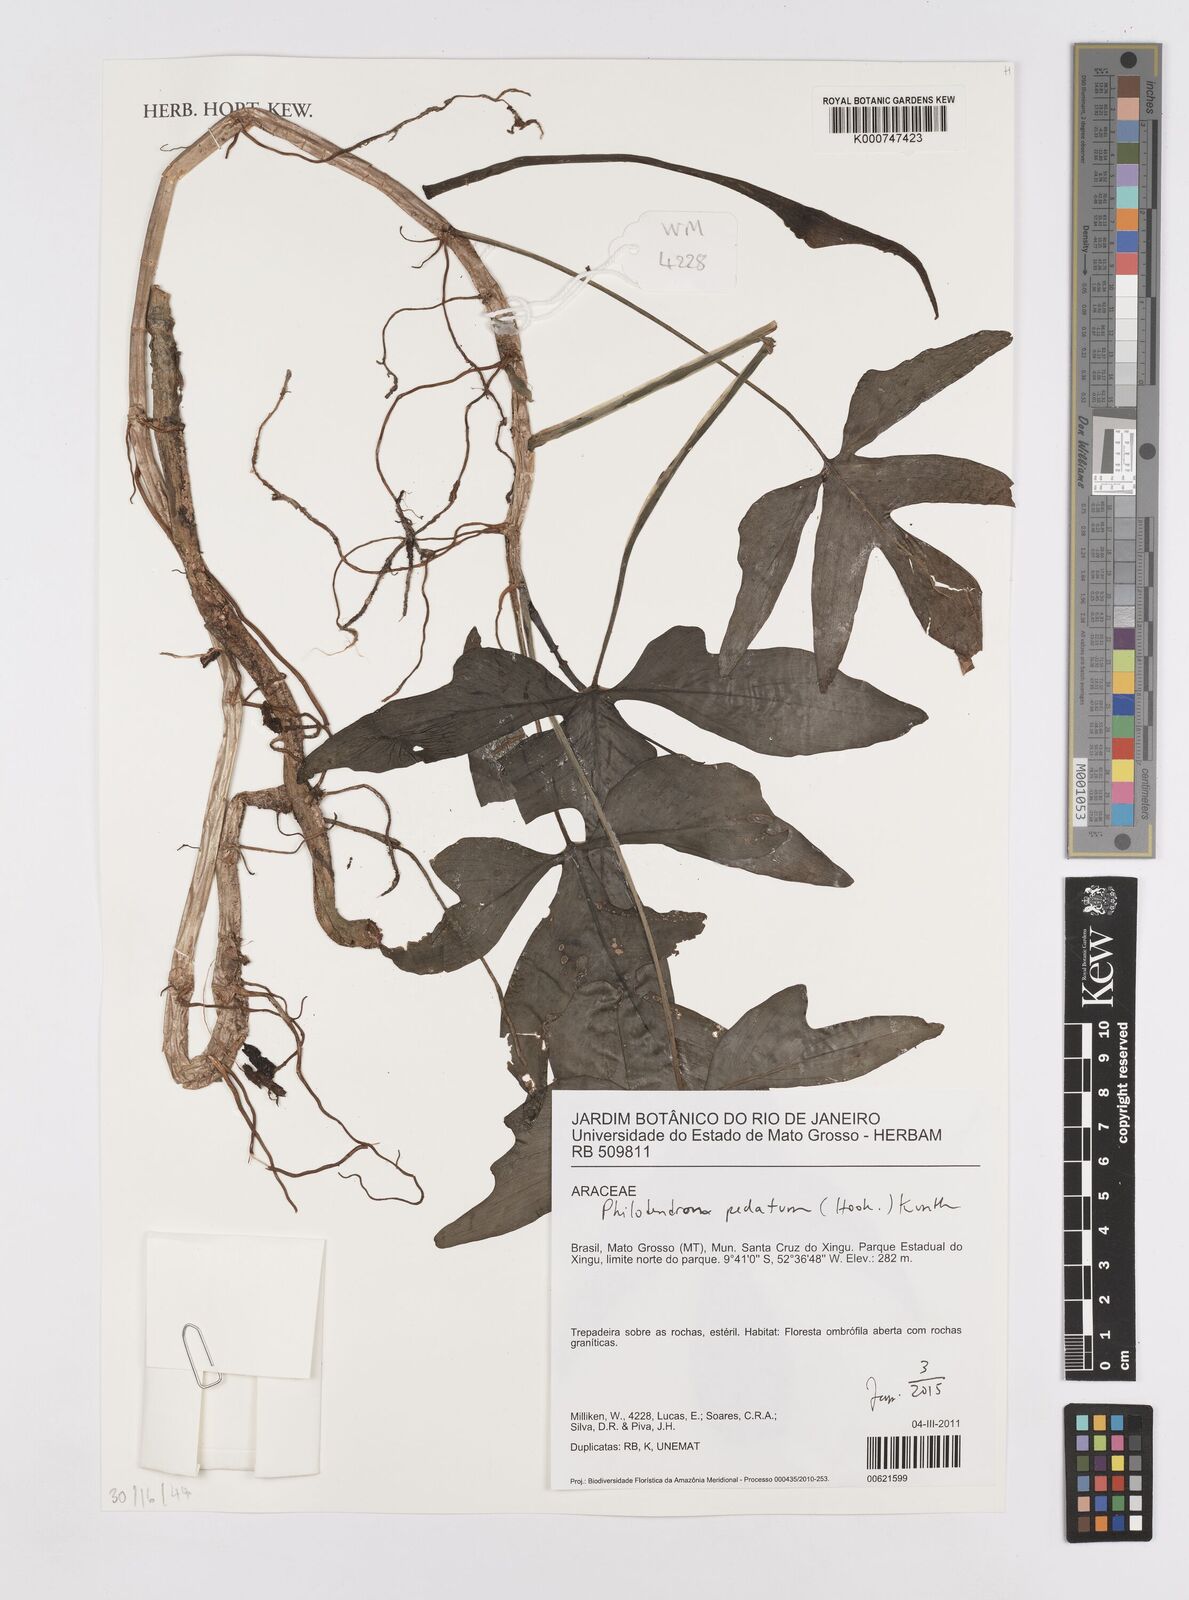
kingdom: Plantae
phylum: Tracheophyta
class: Liliopsida
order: Alismatales
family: Araceae
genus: Philodendron
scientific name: Philodendron pedatum
